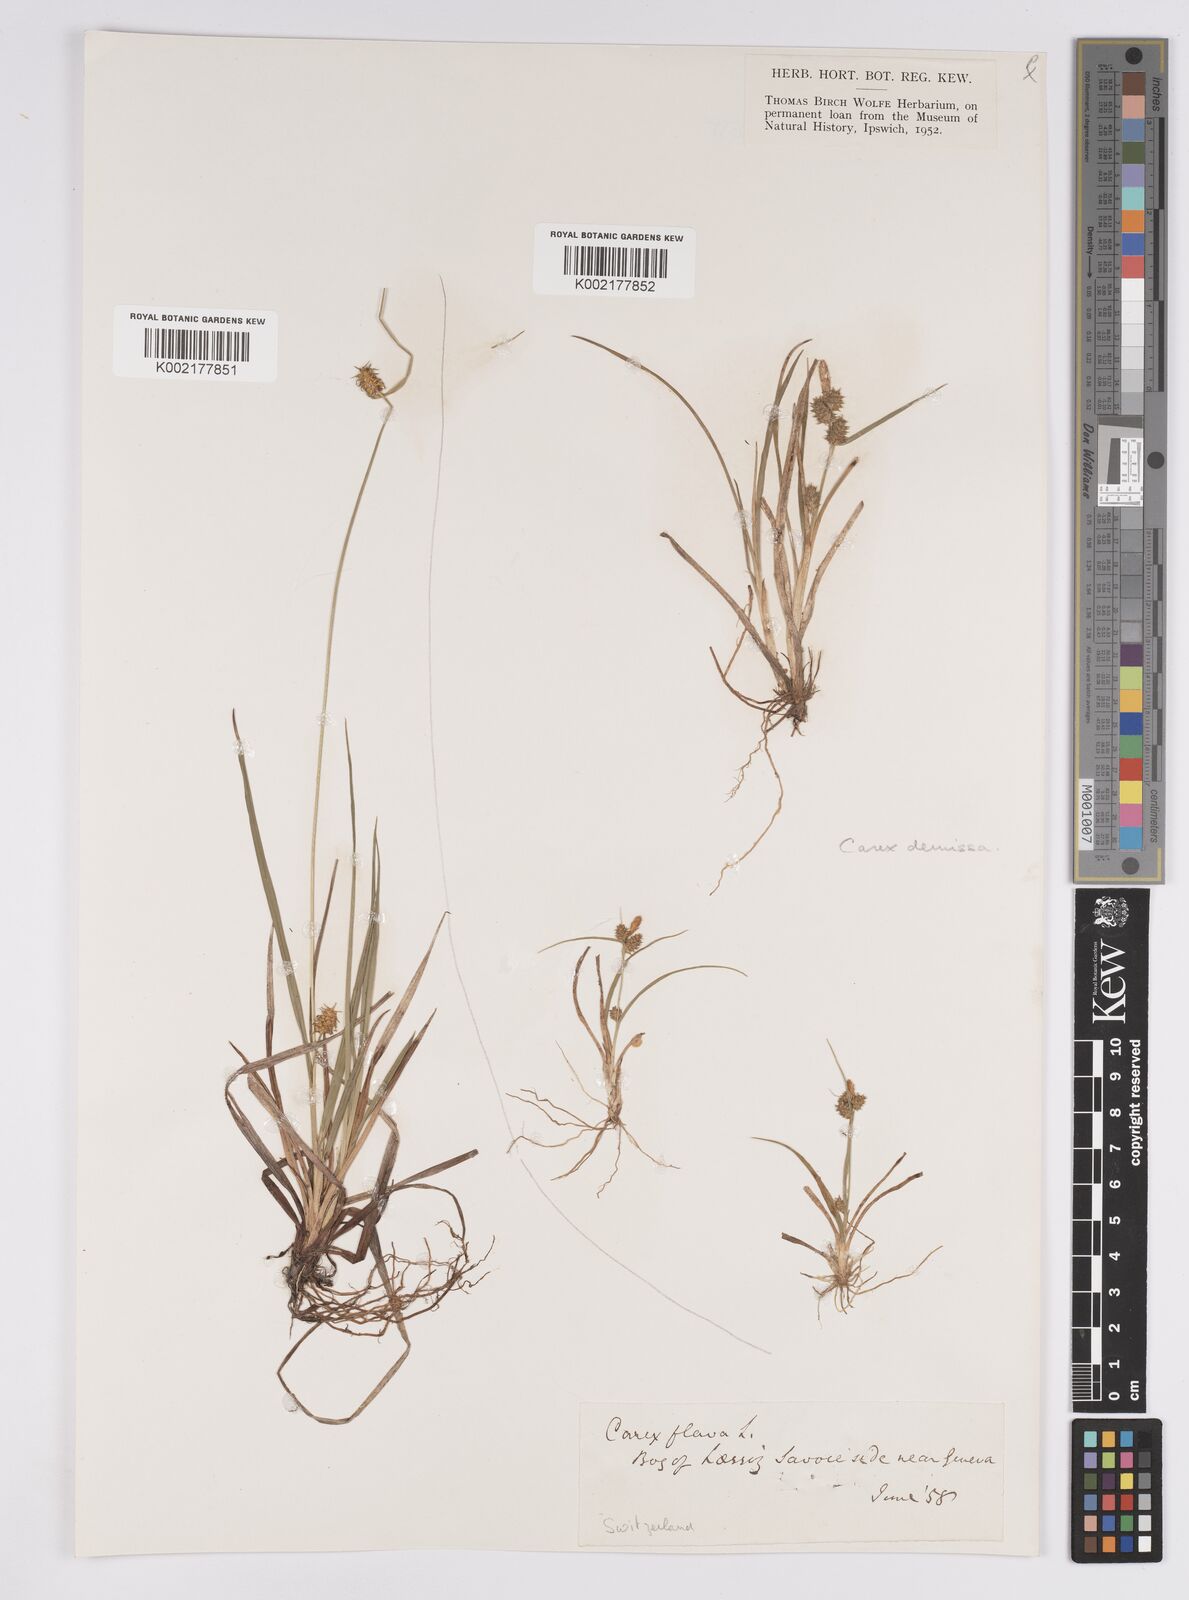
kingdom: Plantae
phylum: Tracheophyta
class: Liliopsida
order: Poales
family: Cyperaceae
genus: Carex
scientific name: Carex flava
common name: Large yellow-sedge
